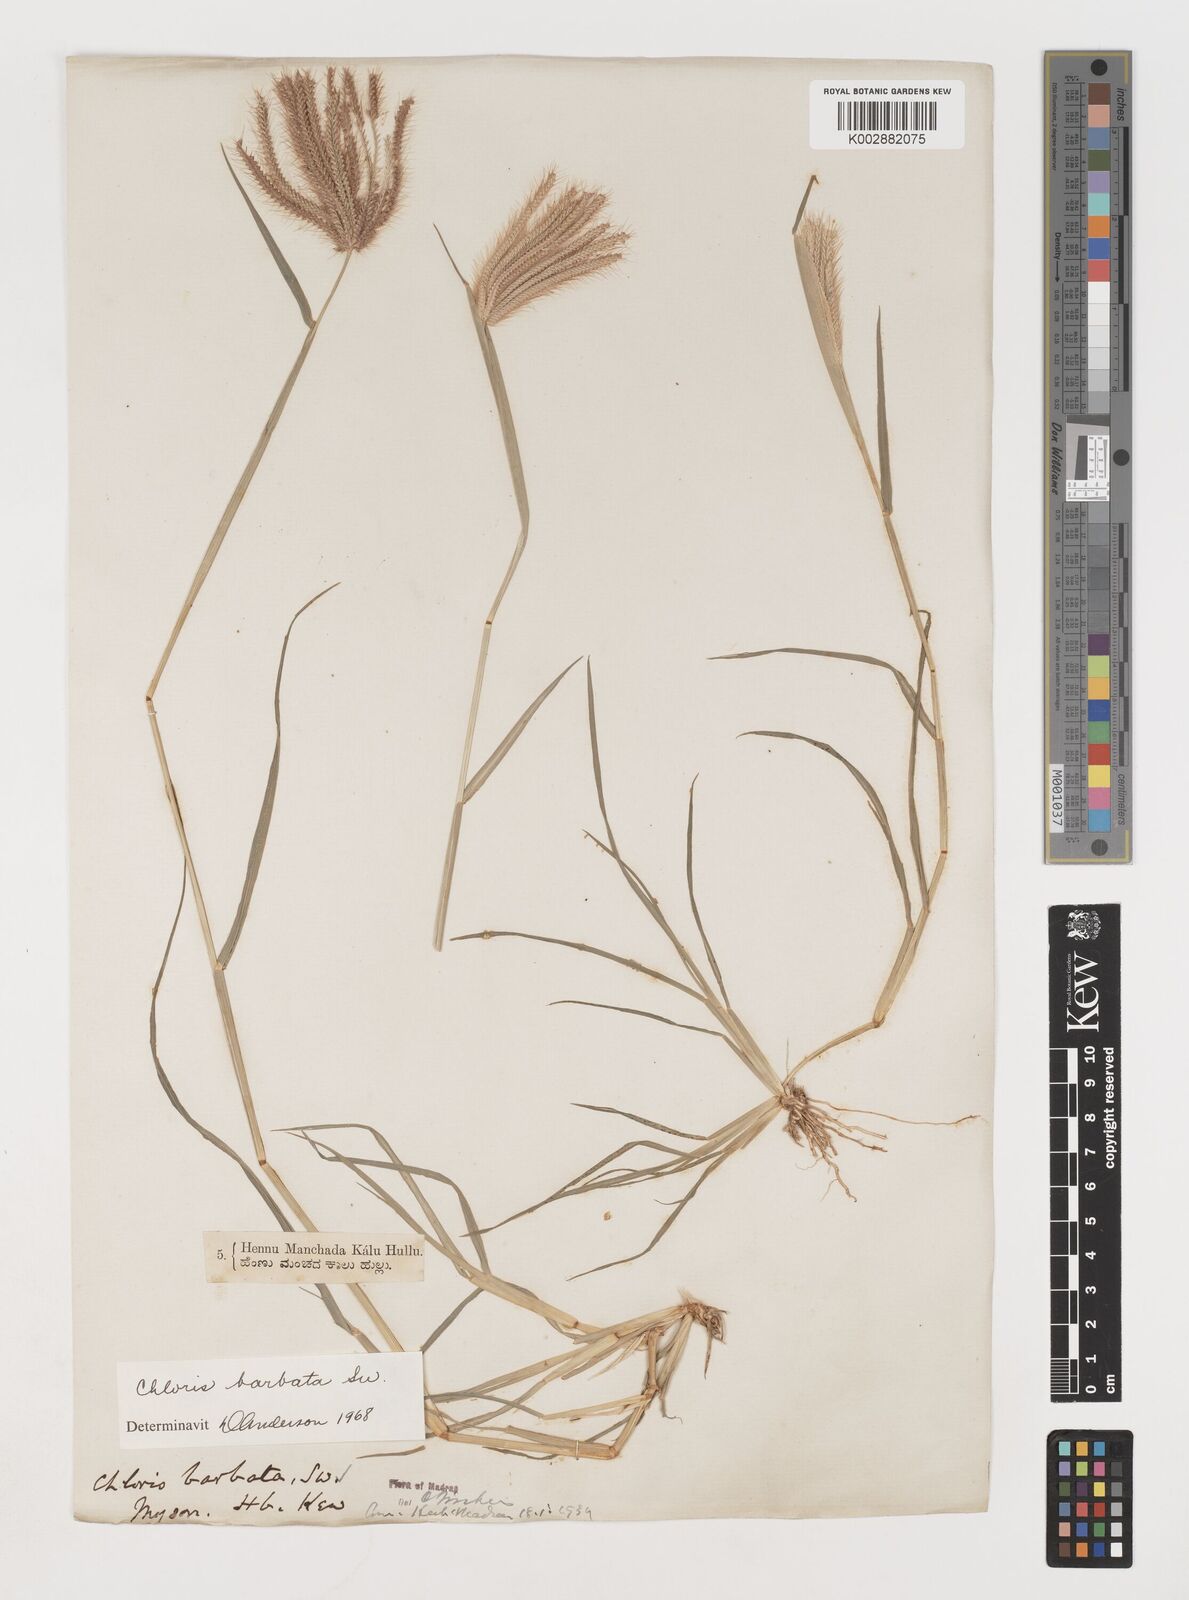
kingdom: Plantae
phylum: Tracheophyta
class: Liliopsida
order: Poales
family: Poaceae
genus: Chloris
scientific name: Chloris barbata
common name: Swollen fingergrass
